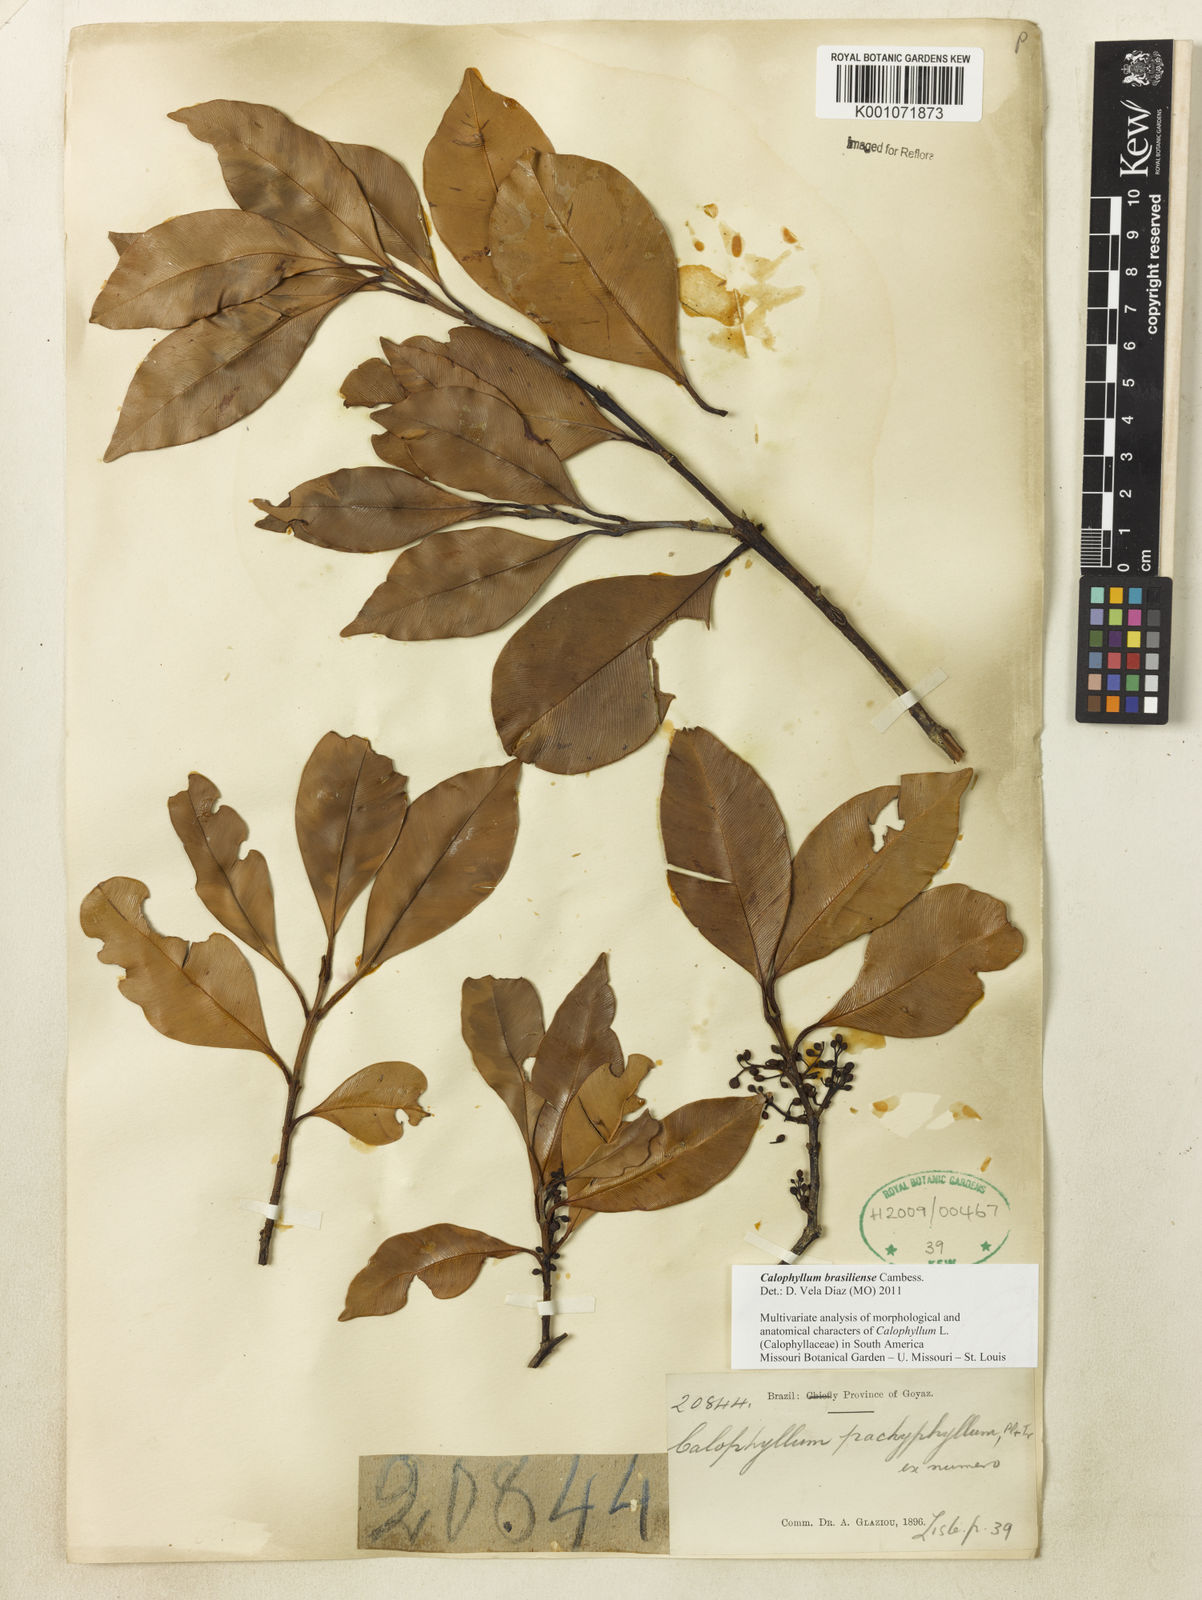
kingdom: Plantae
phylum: Tracheophyta
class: Magnoliopsida
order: Malpighiales
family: Calophyllaceae
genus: Calophyllum
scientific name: Calophyllum brasiliense
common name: Santa maria
